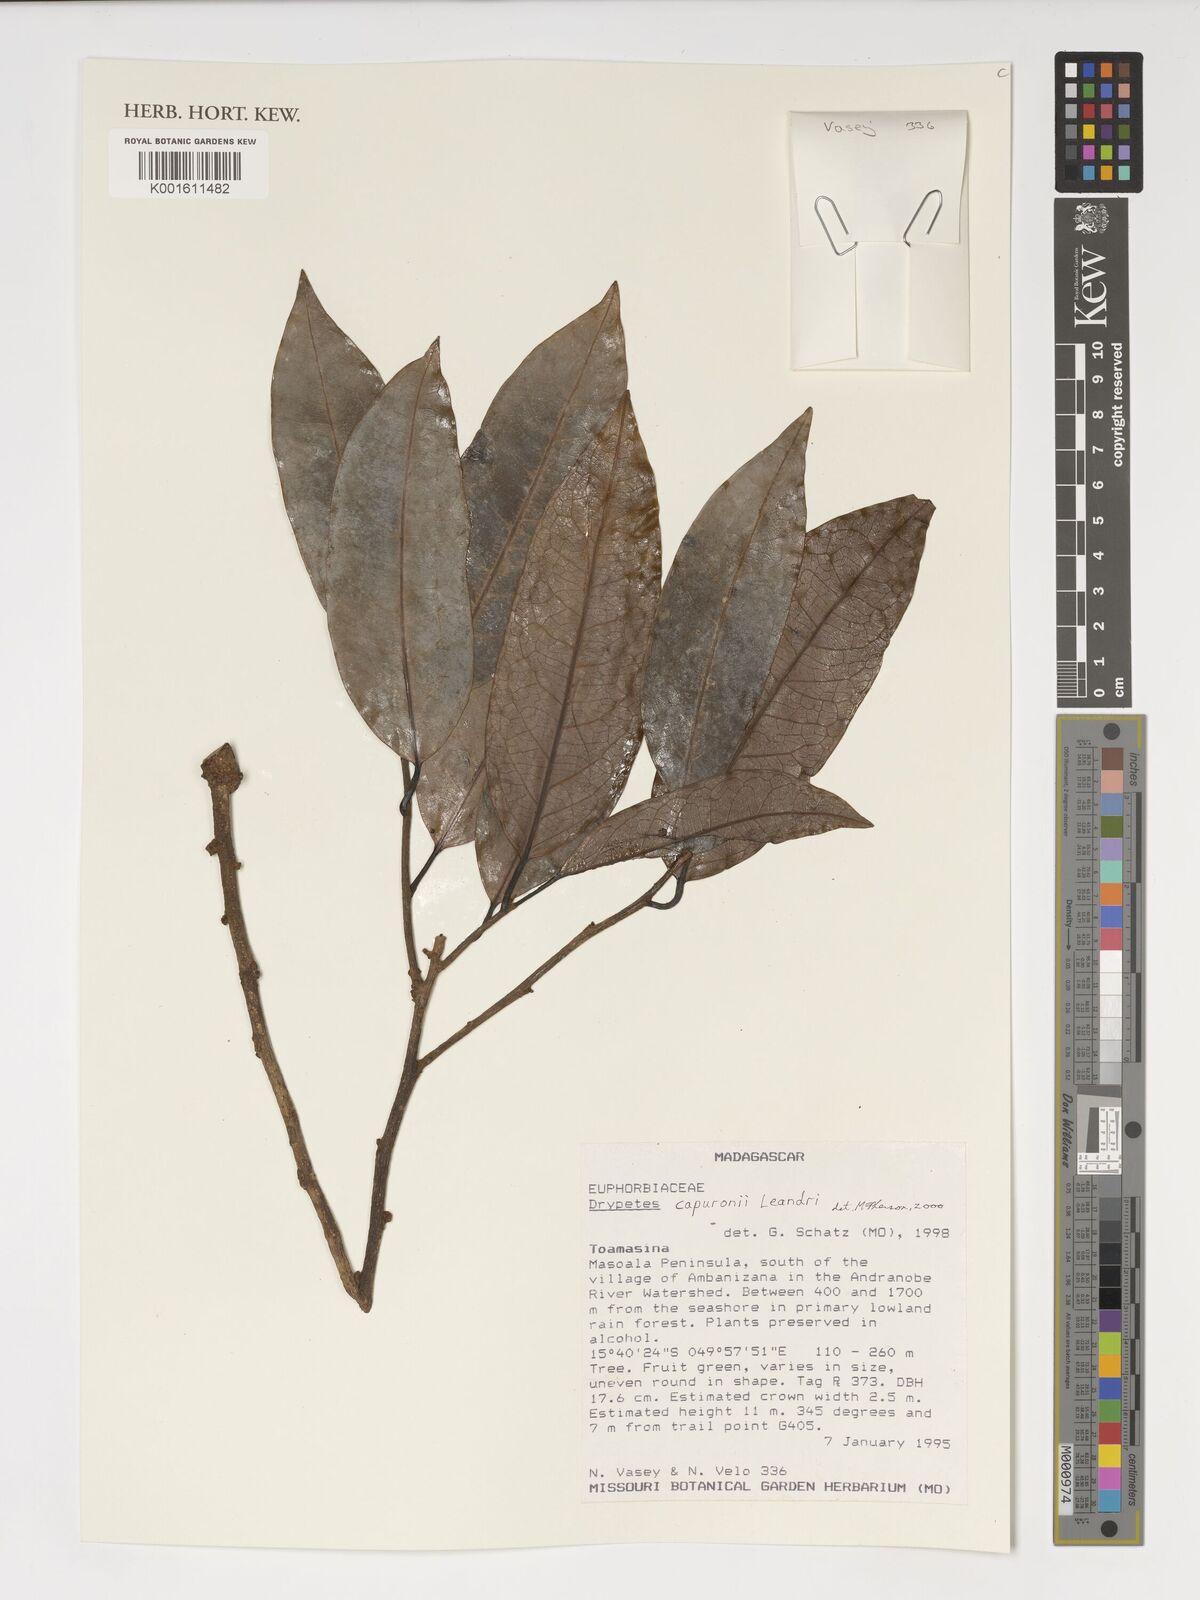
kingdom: Plantae
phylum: Tracheophyta
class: Magnoliopsida
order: Malpighiales
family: Putranjivaceae
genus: Drypetes
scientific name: Drypetes capuronii
